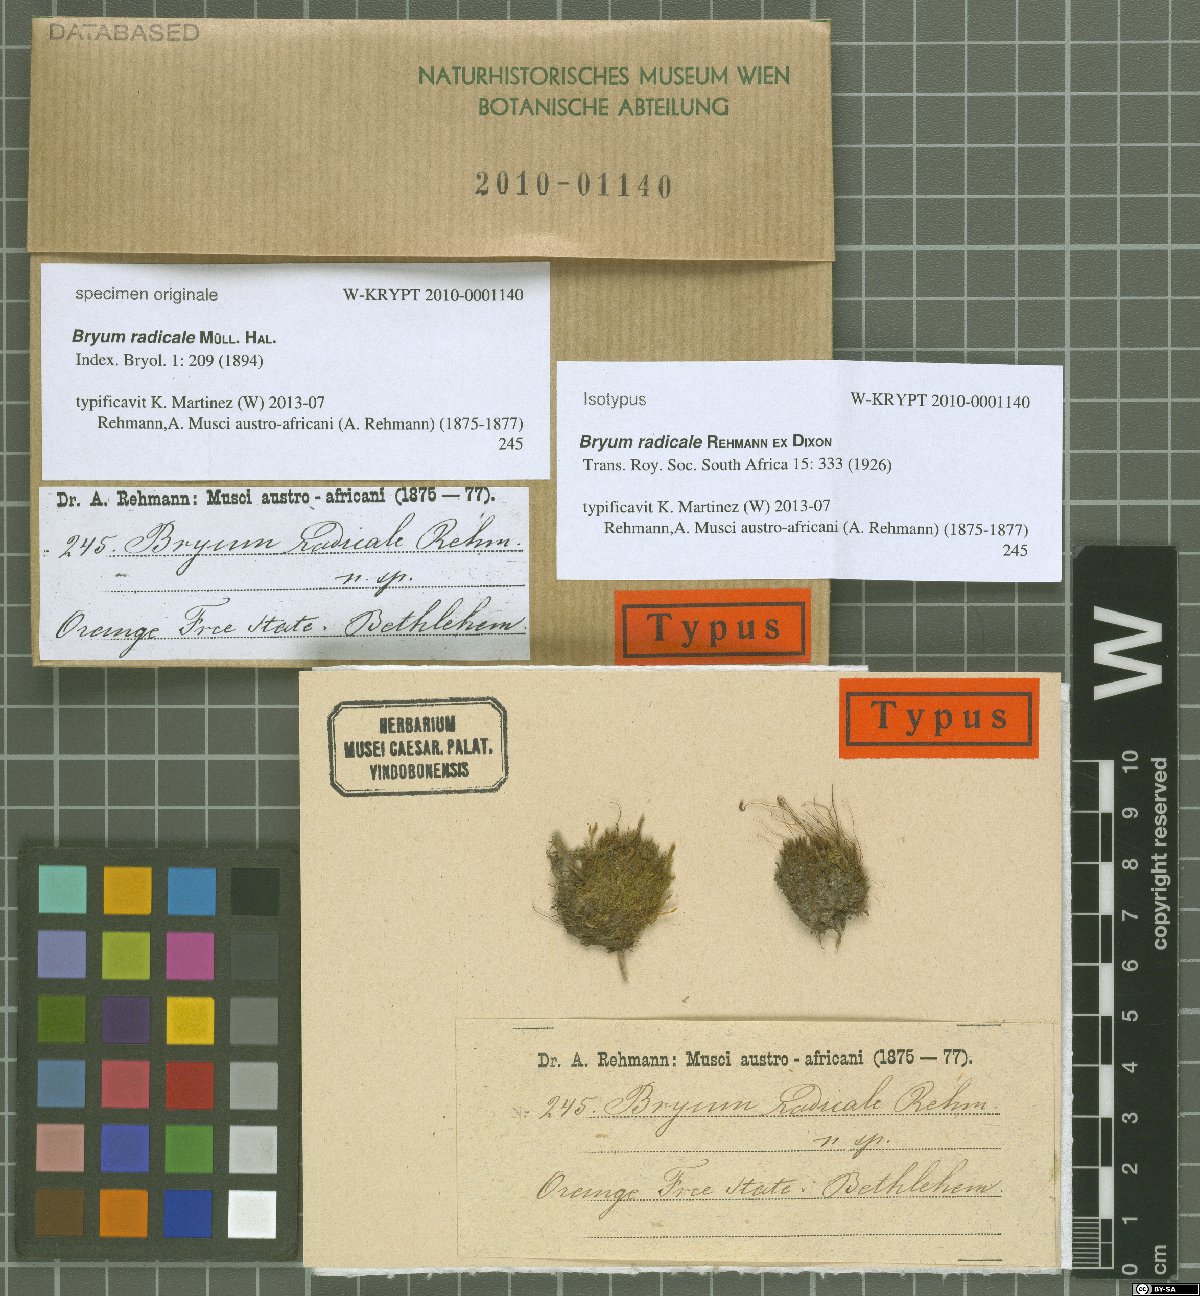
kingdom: Plantae
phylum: Bryophyta
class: Bryopsida
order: Bryales
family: Bryaceae
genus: Ptychostomum
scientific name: Ptychostomum turbinatum
